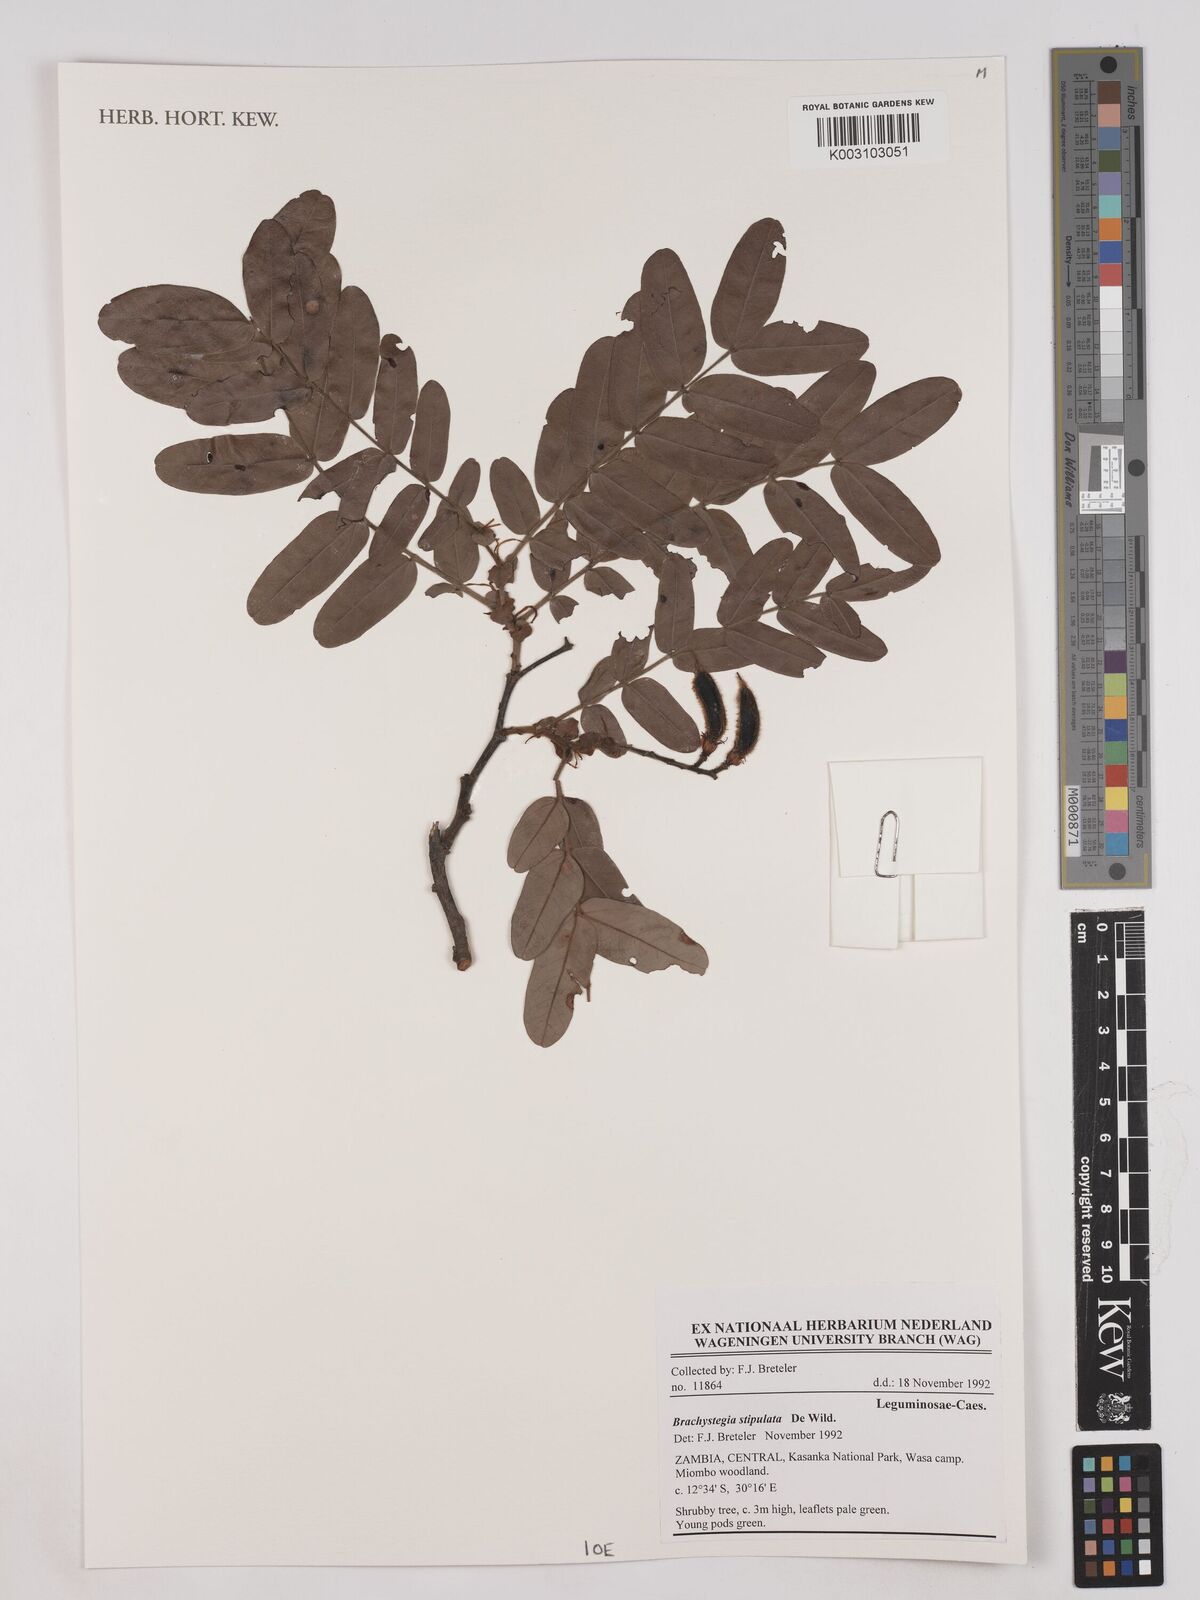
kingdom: Plantae
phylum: Tracheophyta
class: Magnoliopsida
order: Fabales
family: Fabaceae
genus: Brachystegia
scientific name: Brachystegia stipulata
